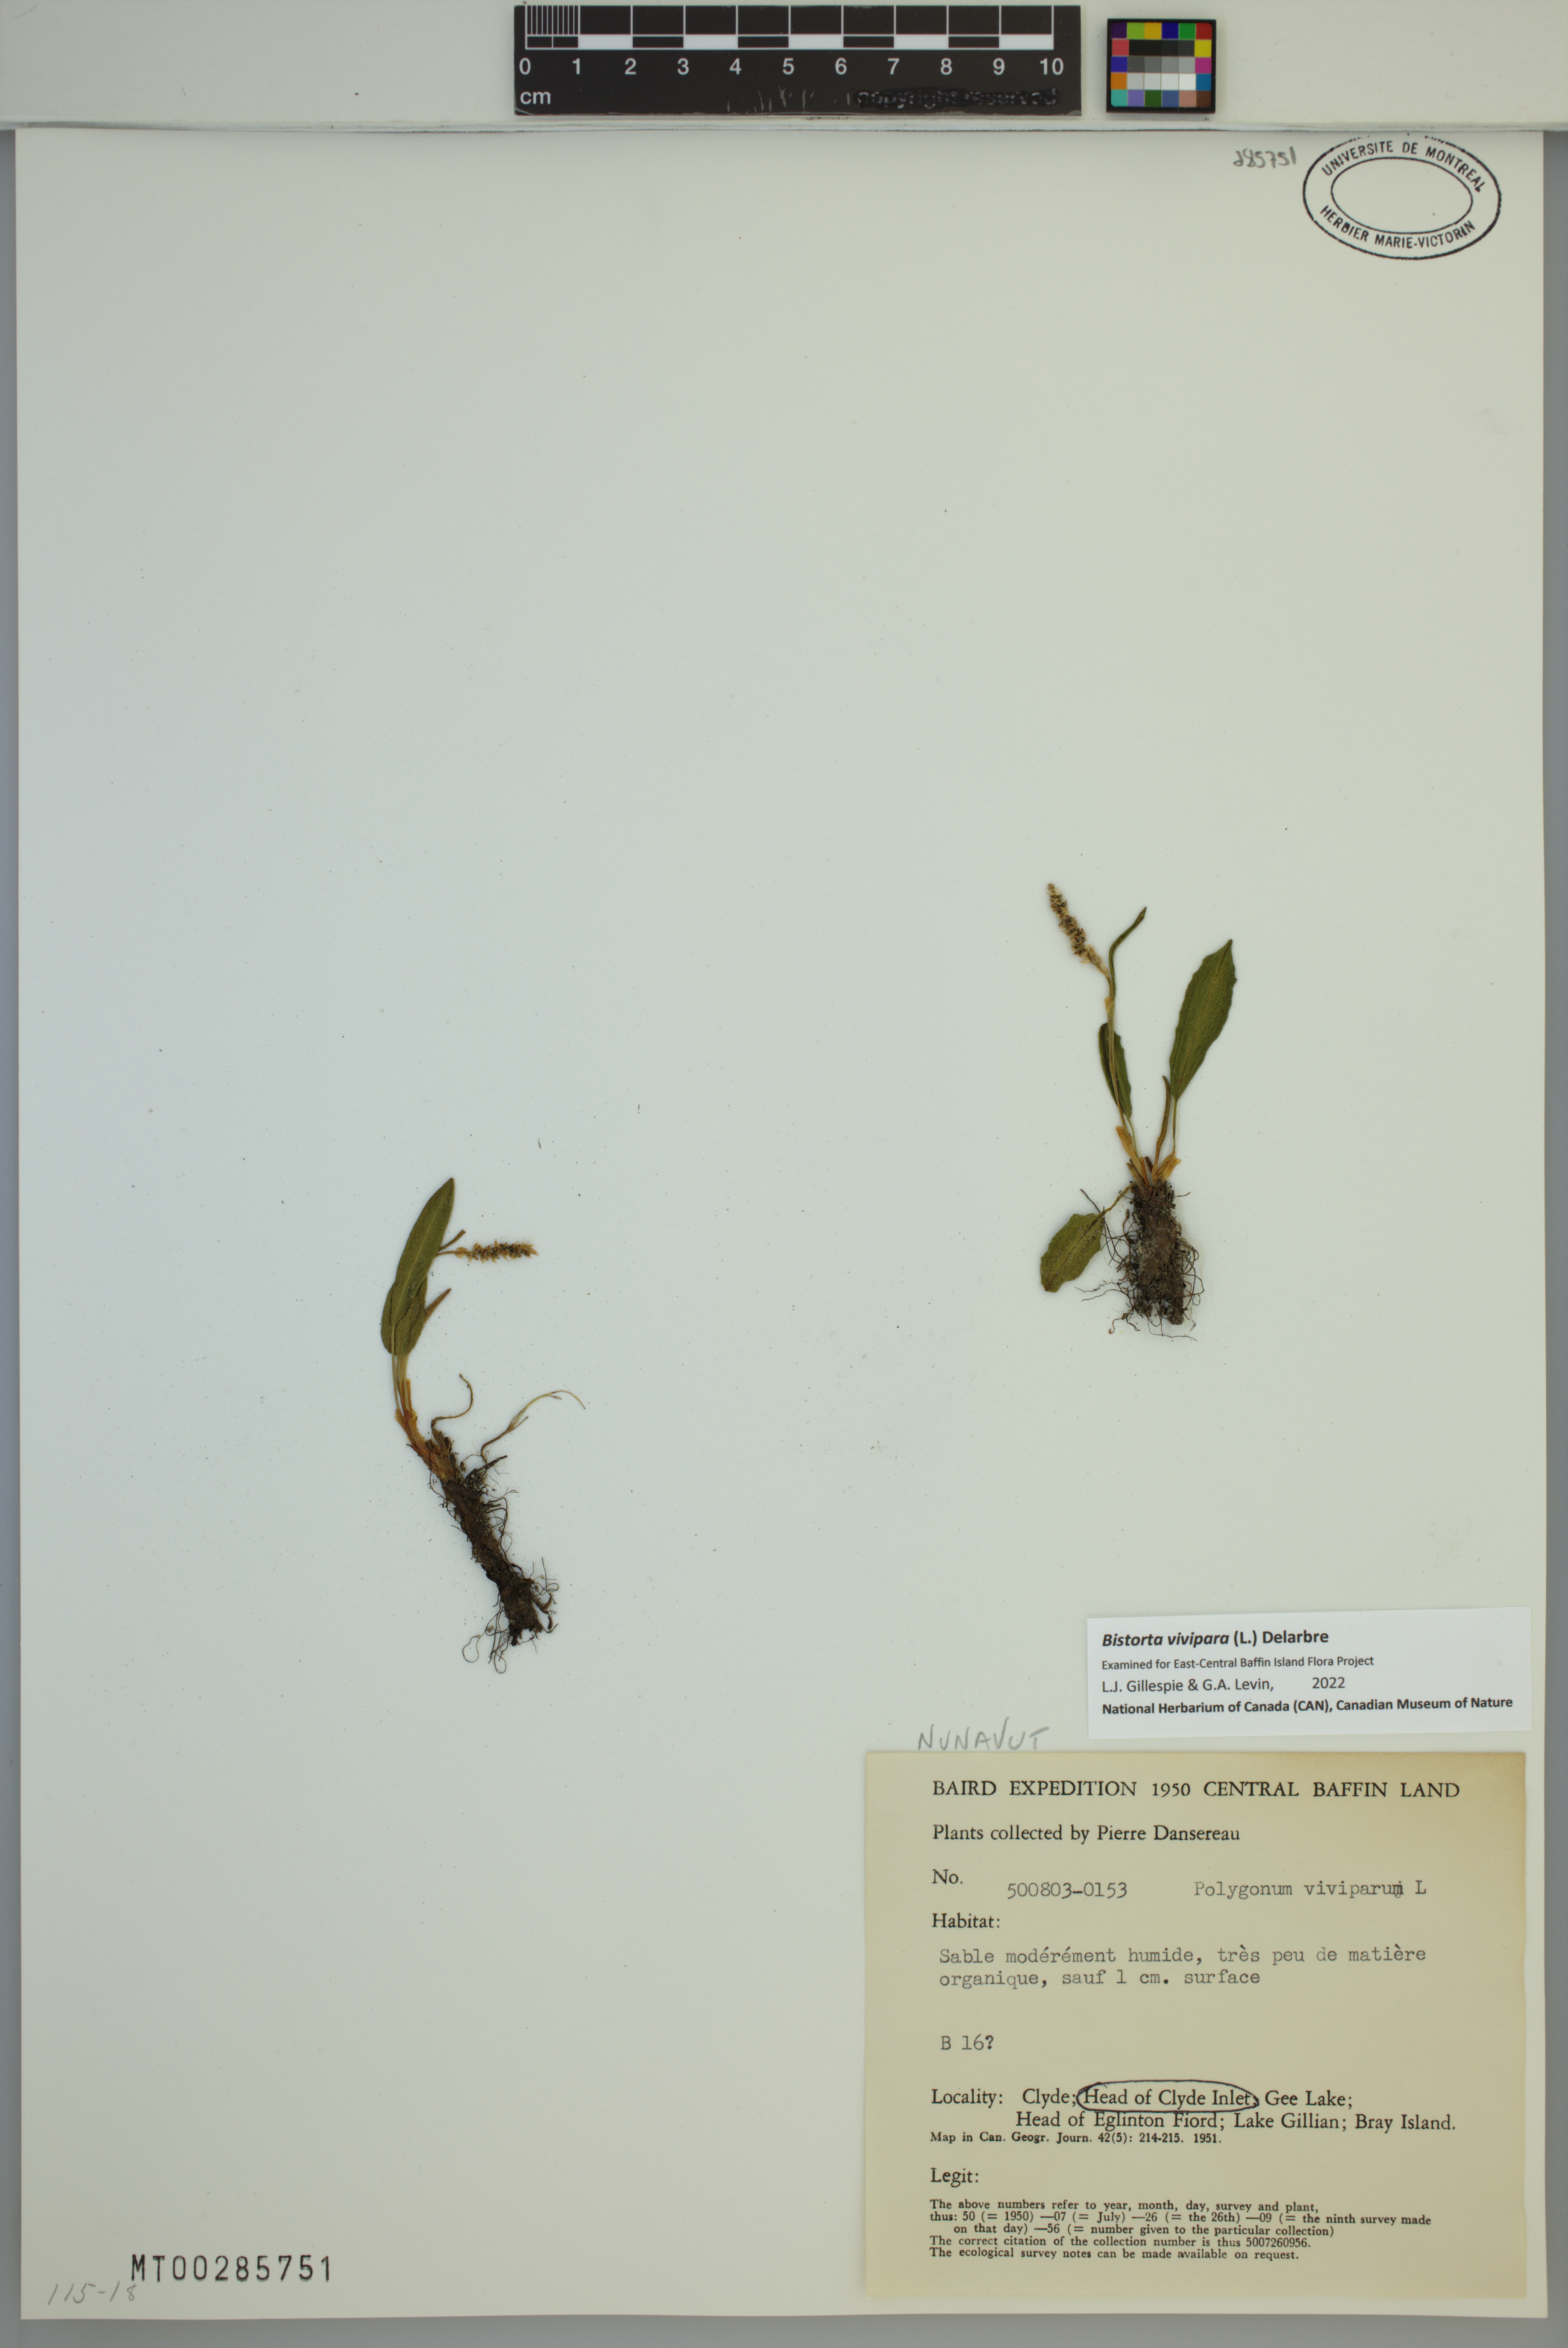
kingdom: Plantae
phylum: Tracheophyta
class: Magnoliopsida
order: Caryophyllales
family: Polygonaceae
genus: Bistorta
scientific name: Bistorta vivipara
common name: Alpine bistort
